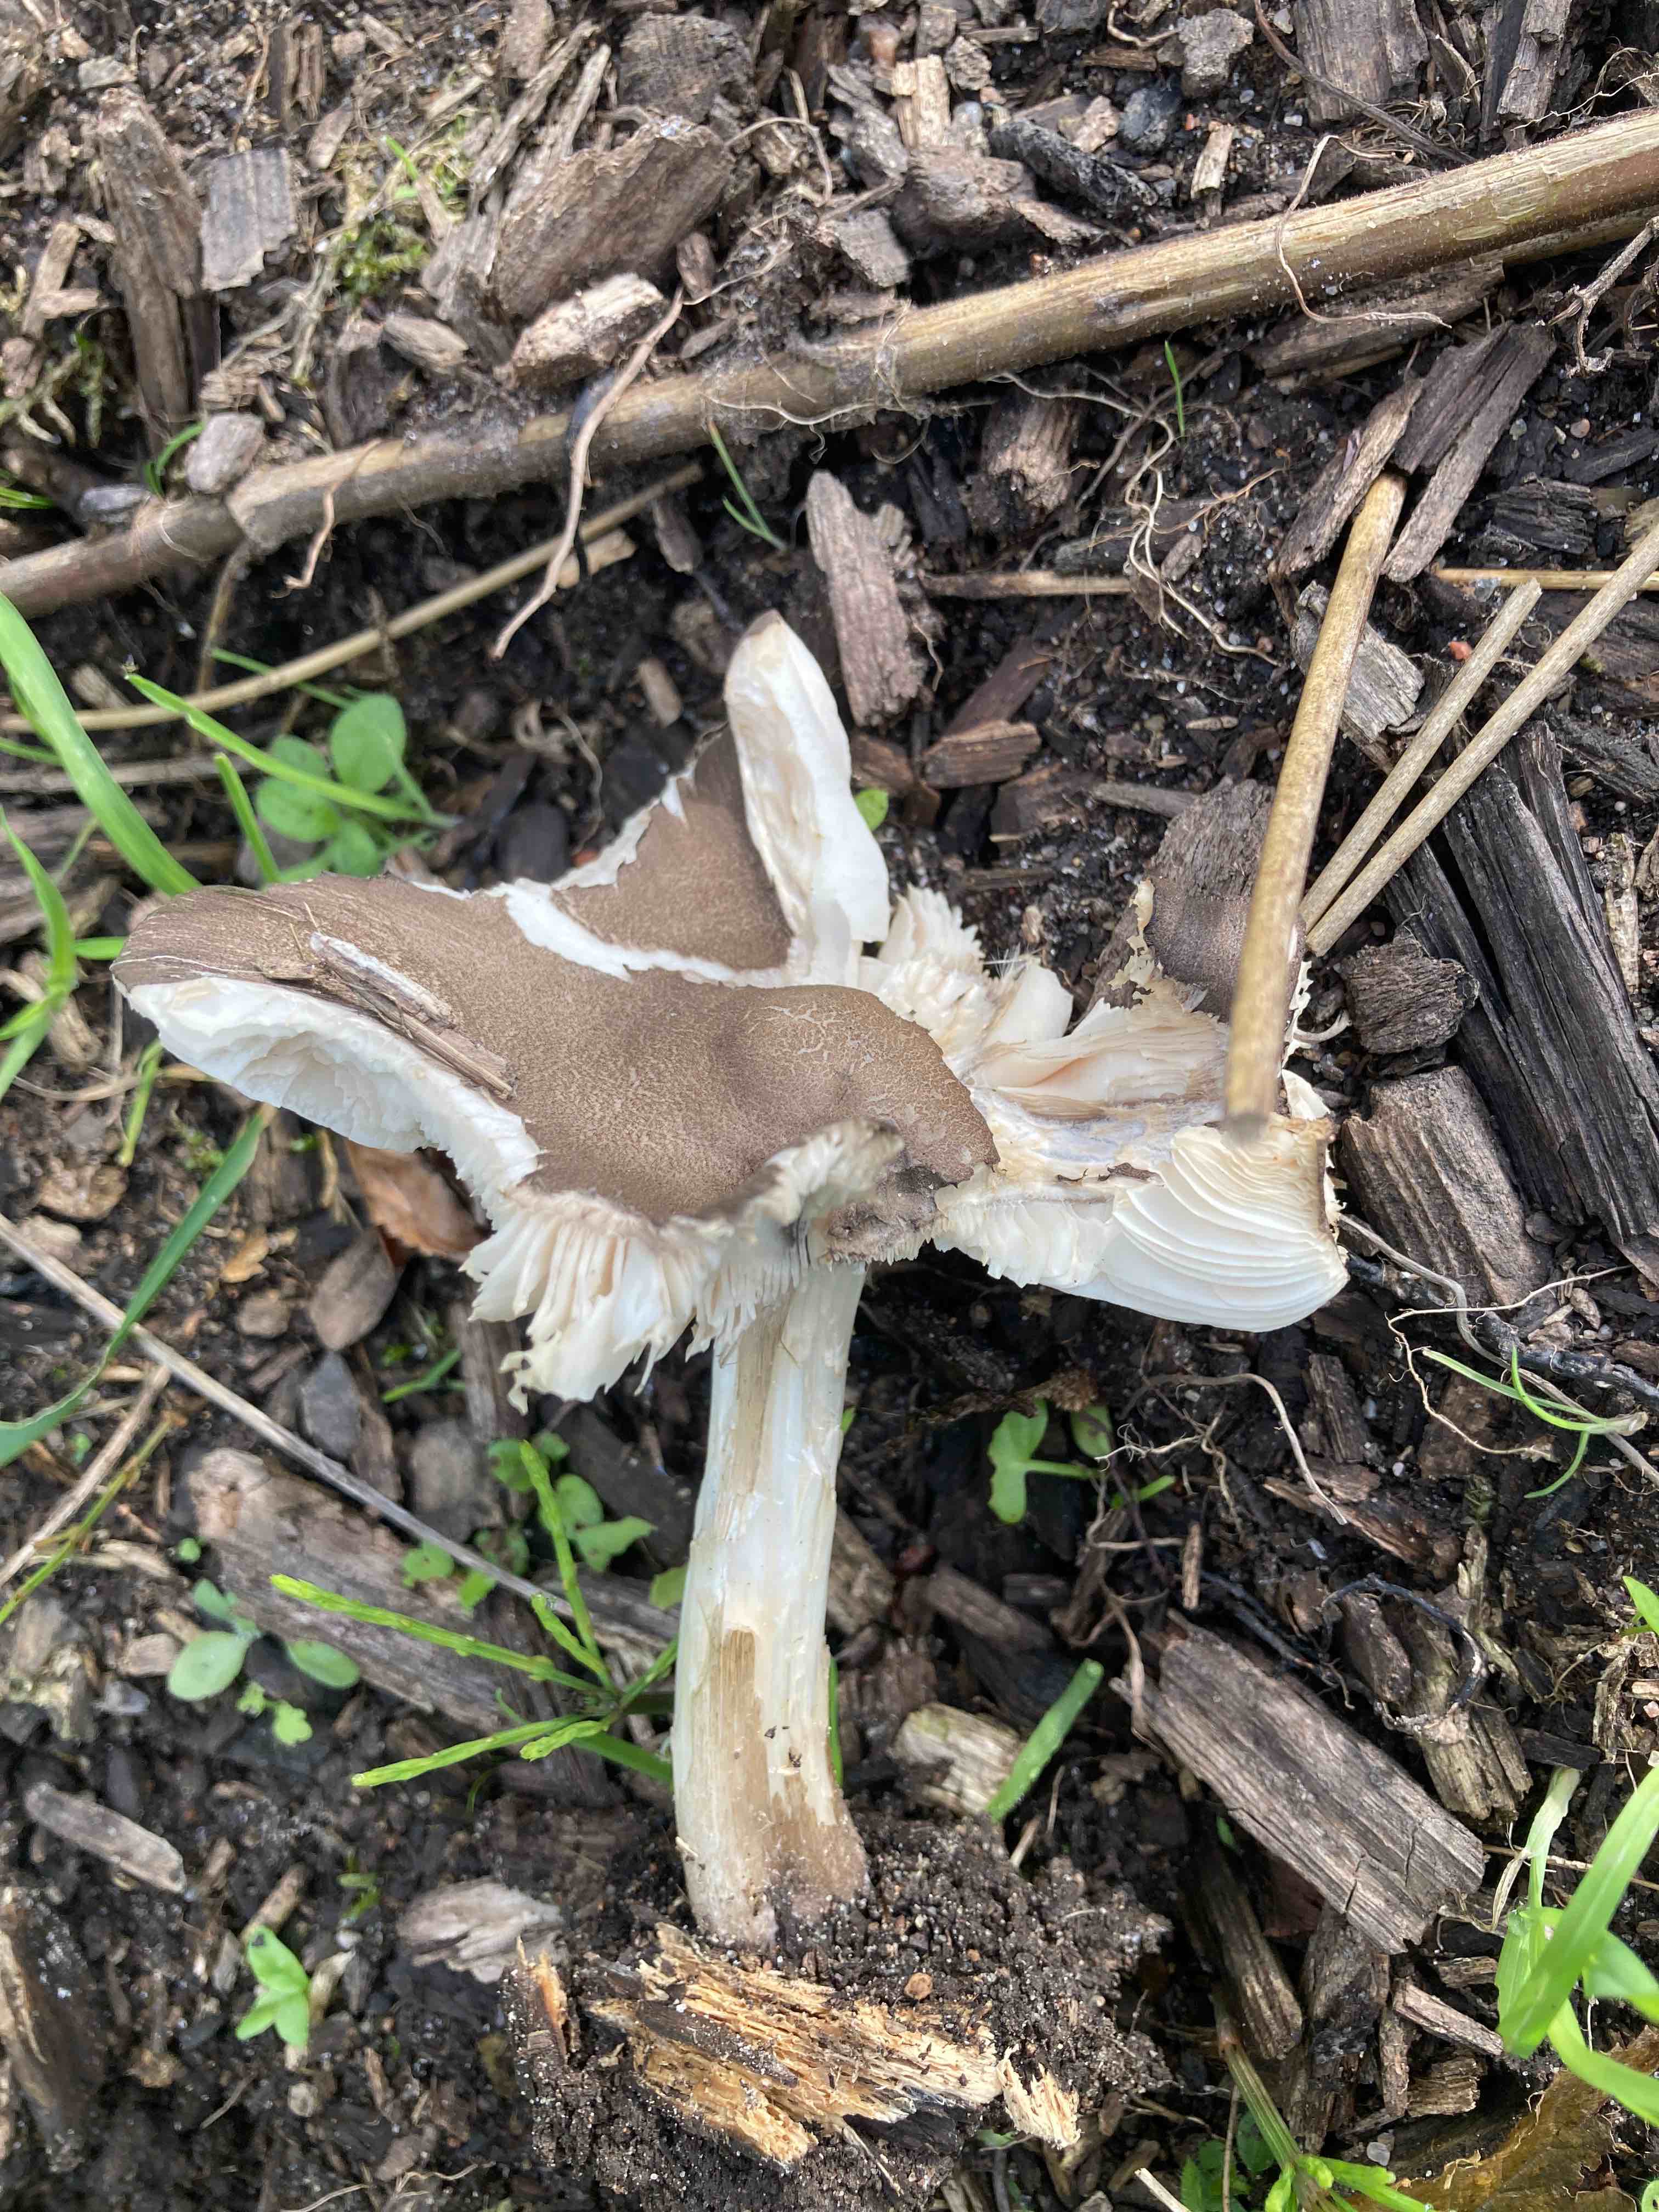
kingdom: Fungi
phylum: Basidiomycota
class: Agaricomycetes
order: Agaricales
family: Pluteaceae
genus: Pluteus
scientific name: Pluteus
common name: gråfibret skærmhat
